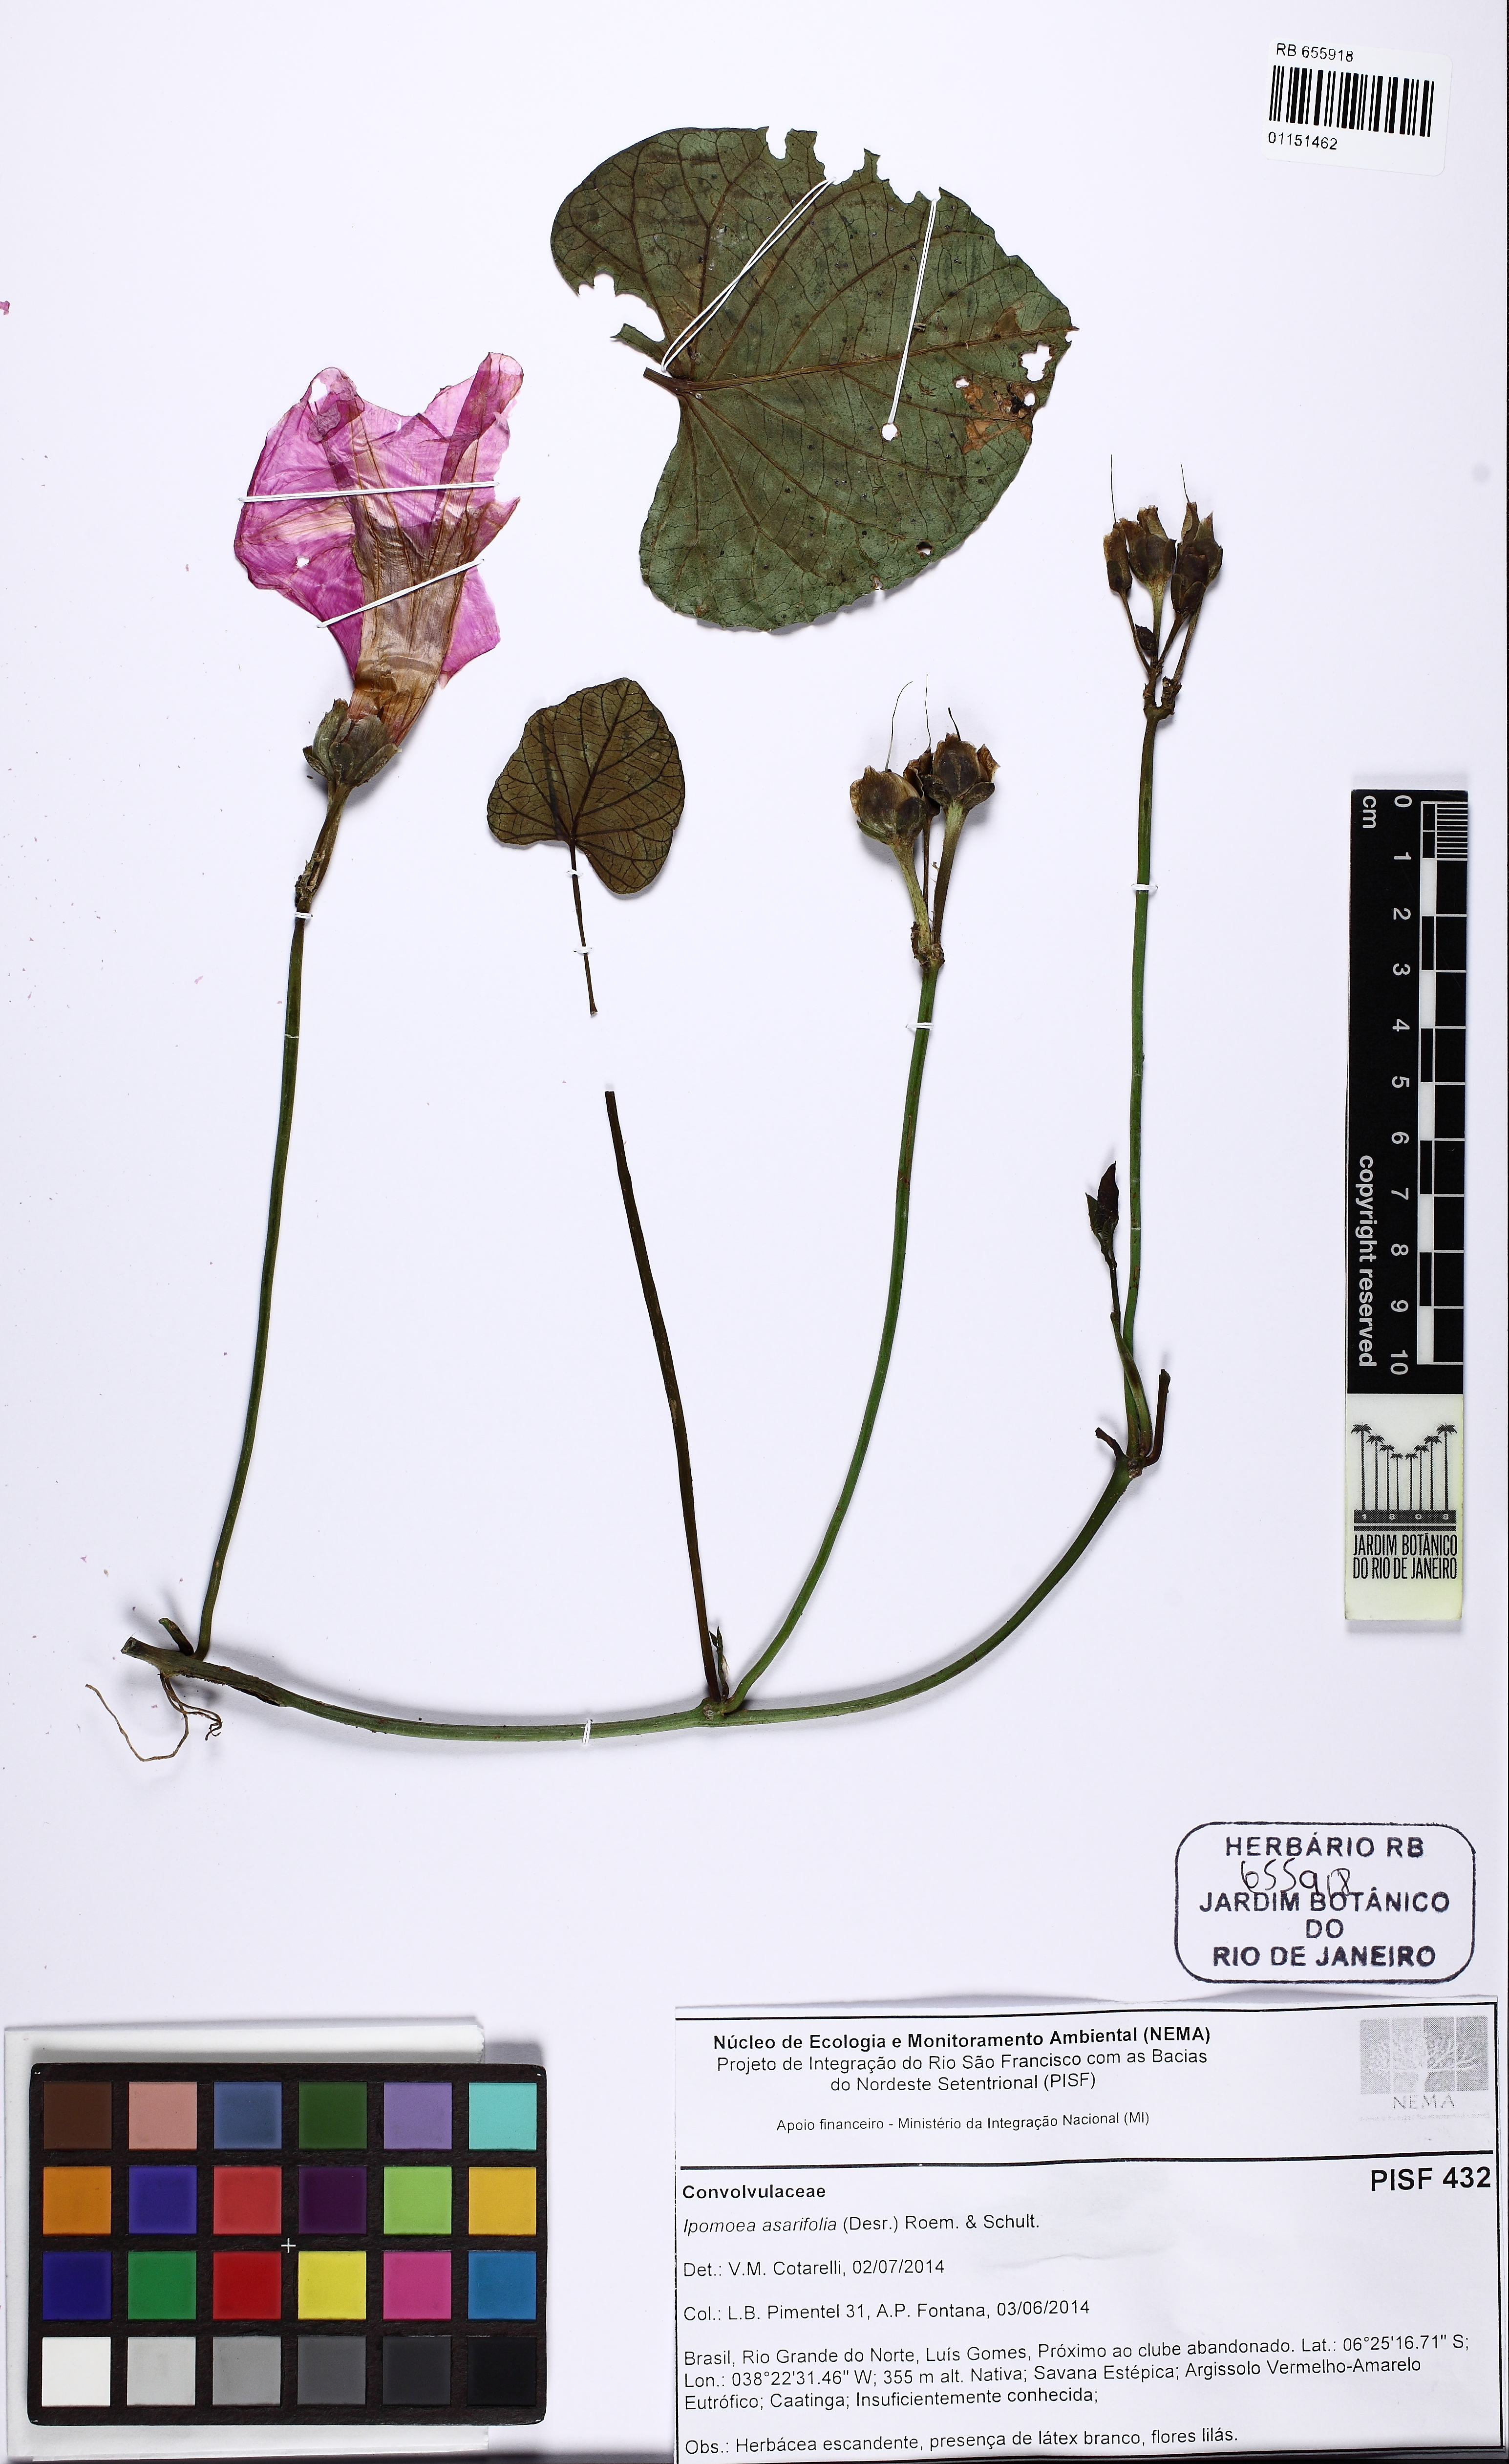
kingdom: Plantae
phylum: Tracheophyta
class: Magnoliopsida
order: Solanales
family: Convolvulaceae
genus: Ipomoea
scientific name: Ipomoea asarifolia
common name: Ginger-leaf morning-glory
